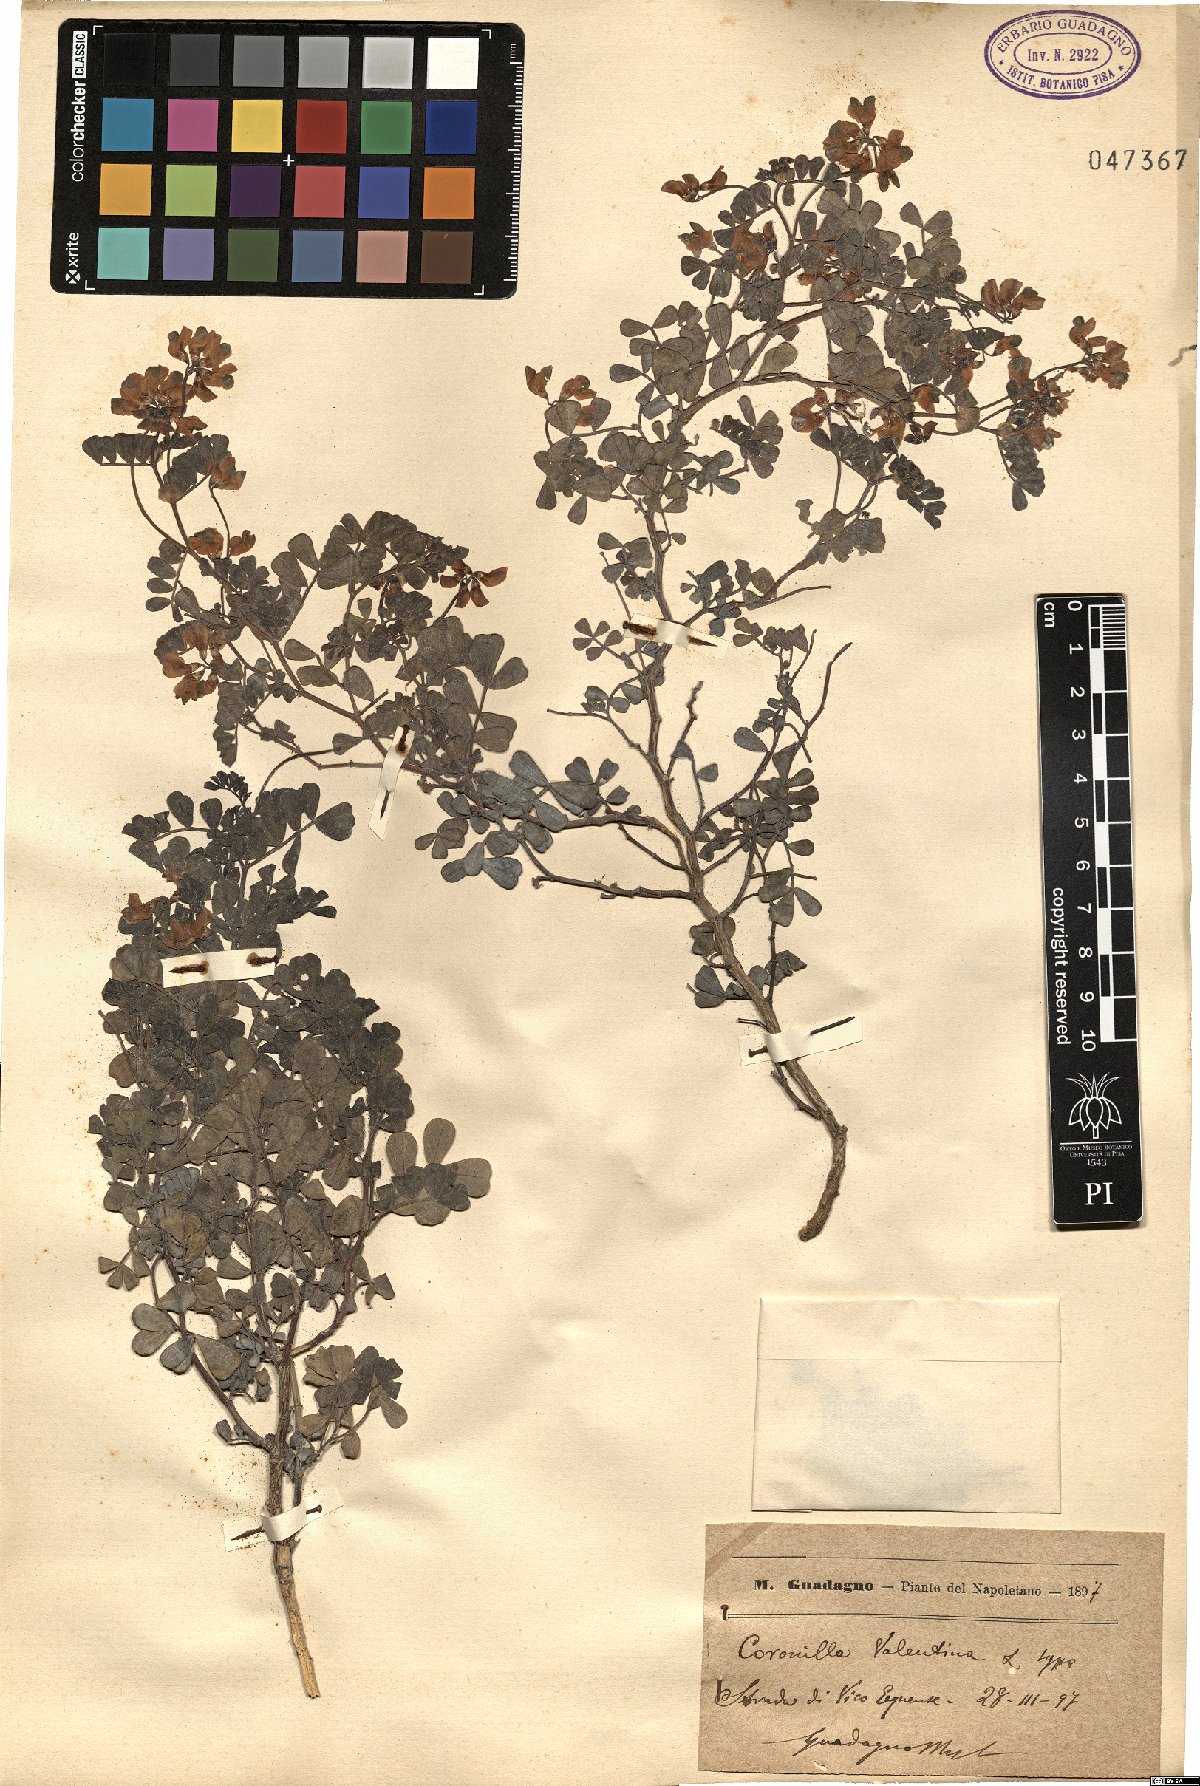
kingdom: Plantae
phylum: Tracheophyta
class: Magnoliopsida
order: Fabales
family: Fabaceae
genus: Coronilla
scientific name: Coronilla valentina
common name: Shrubby scorpion-vetch
